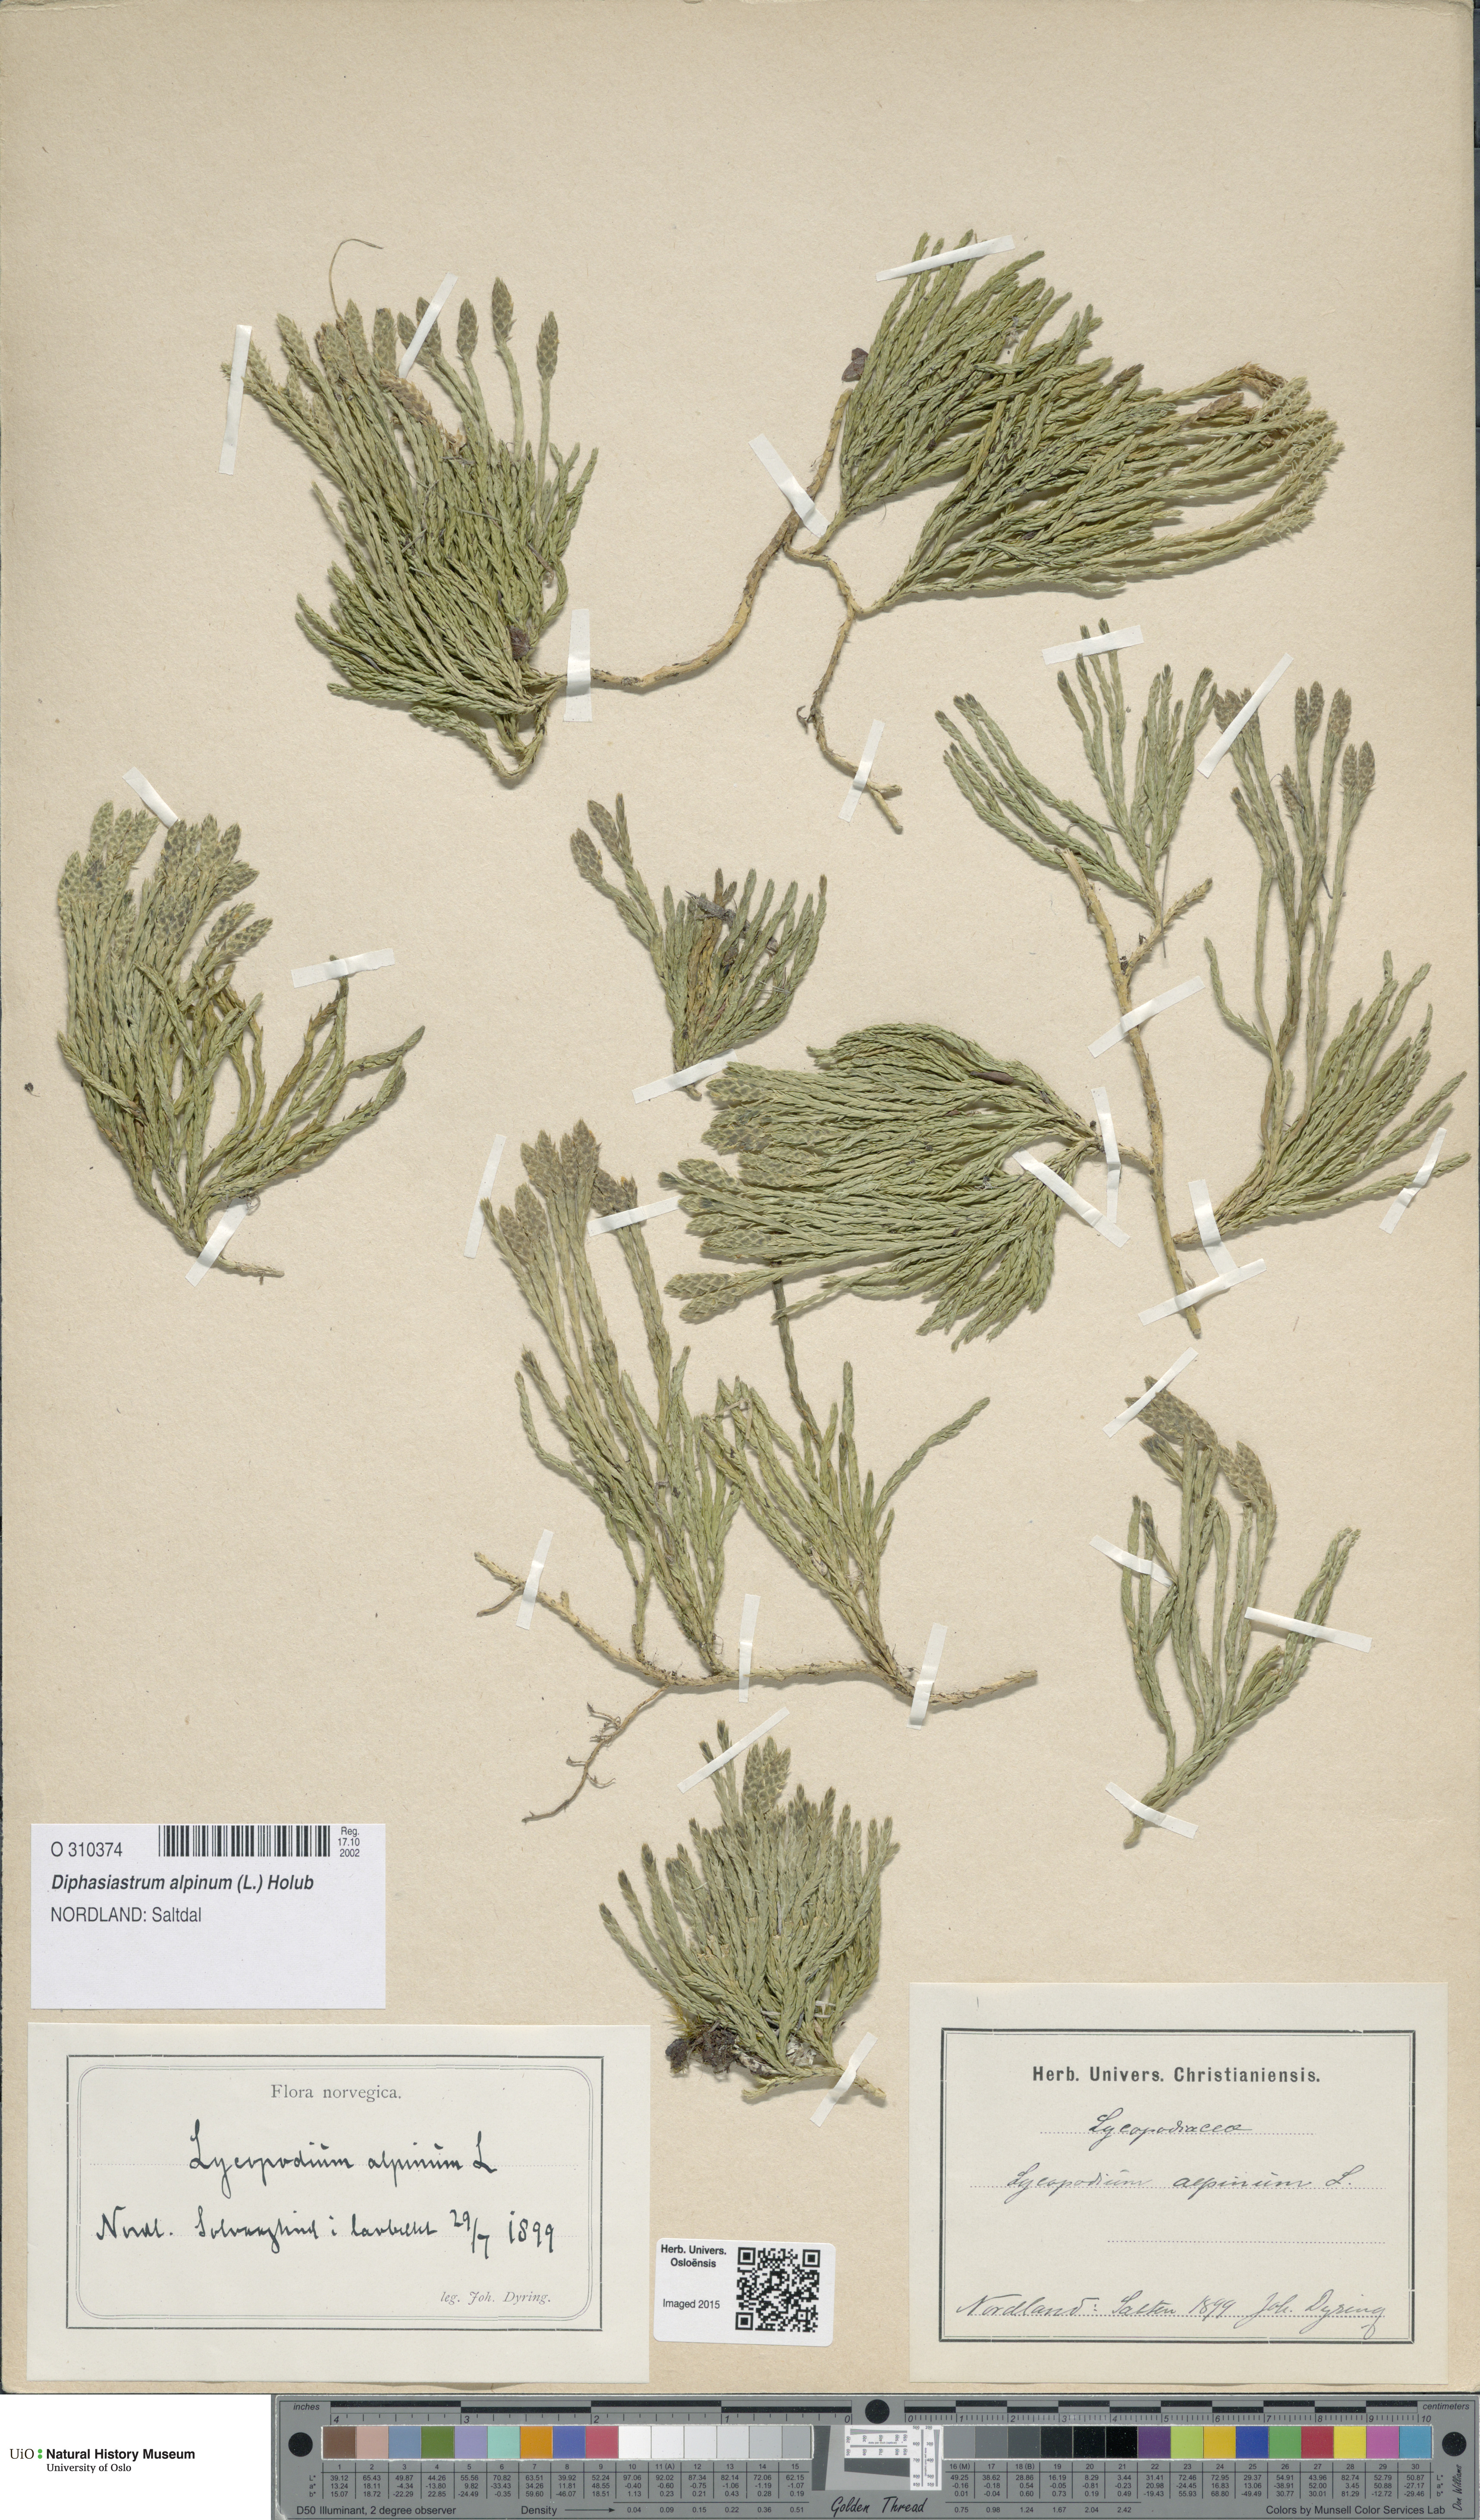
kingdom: Plantae
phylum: Tracheophyta
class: Lycopodiopsida
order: Lycopodiales
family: Lycopodiaceae
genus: Diphasiastrum
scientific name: Diphasiastrum alpinum
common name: Alpine clubmoss
